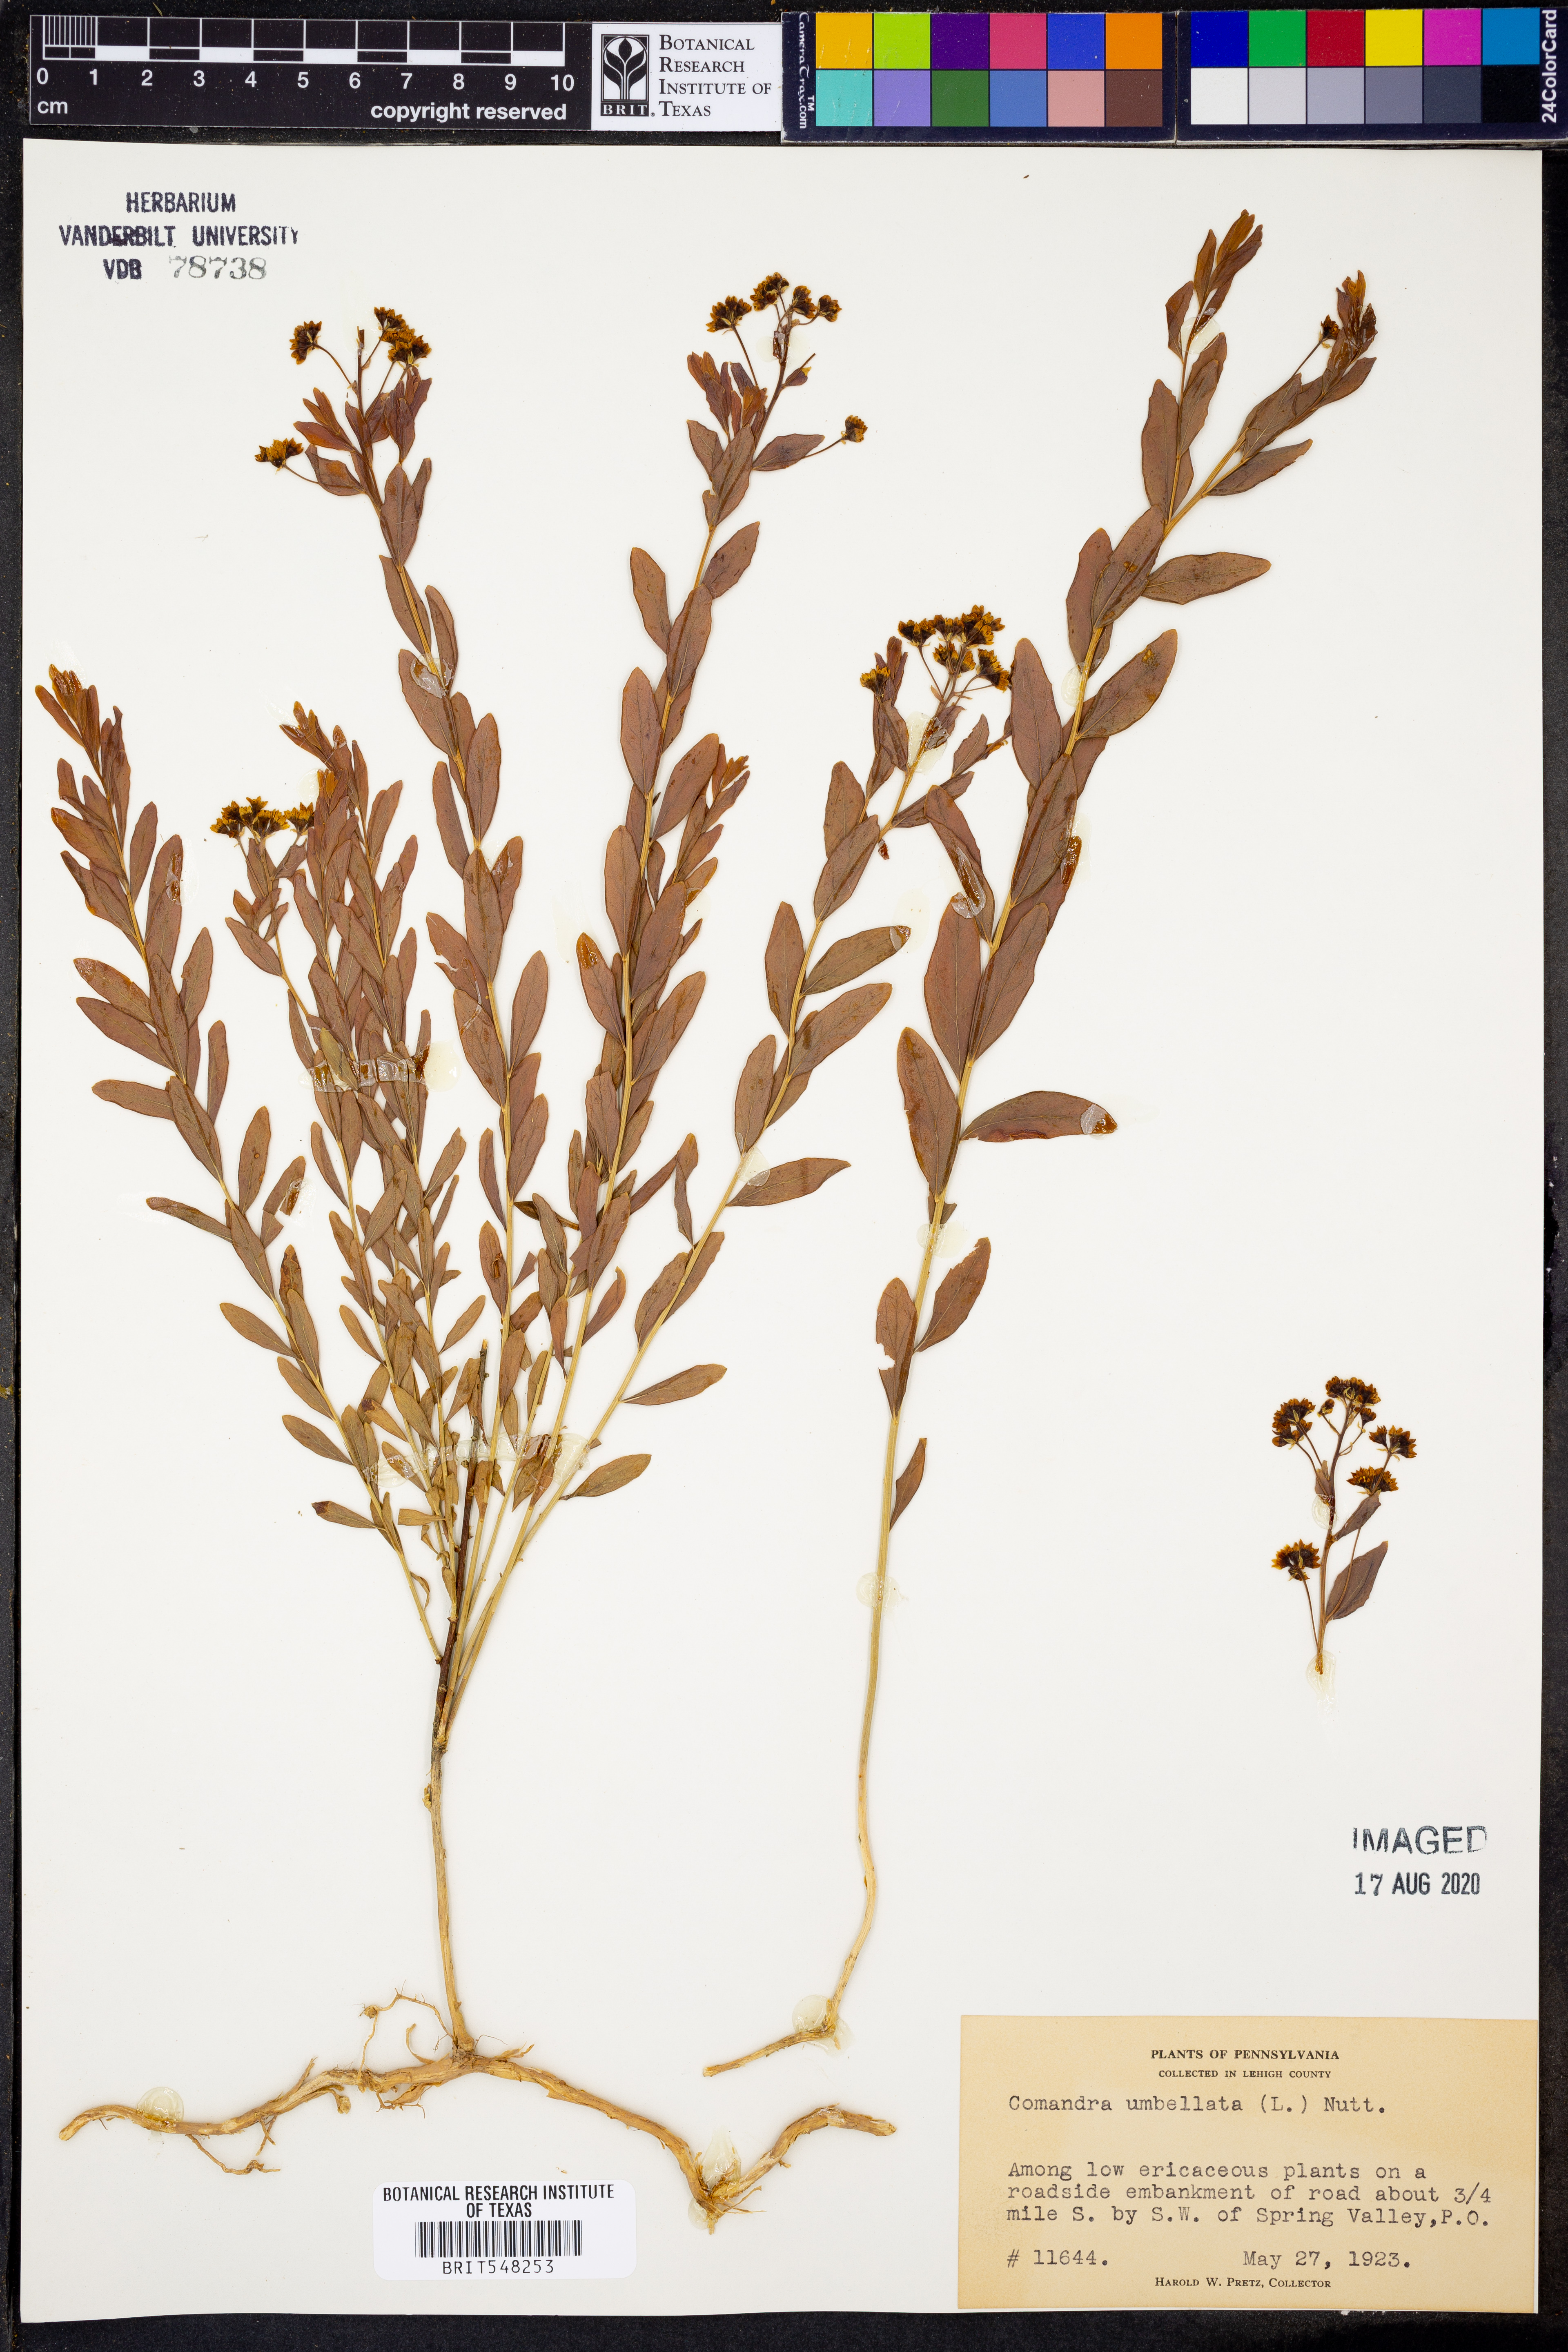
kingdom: Plantae
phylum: Tracheophyta
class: Magnoliopsida
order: Santalales
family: Comandraceae
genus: Comandra
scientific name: Comandra umbellata
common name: Bastard toadflax
